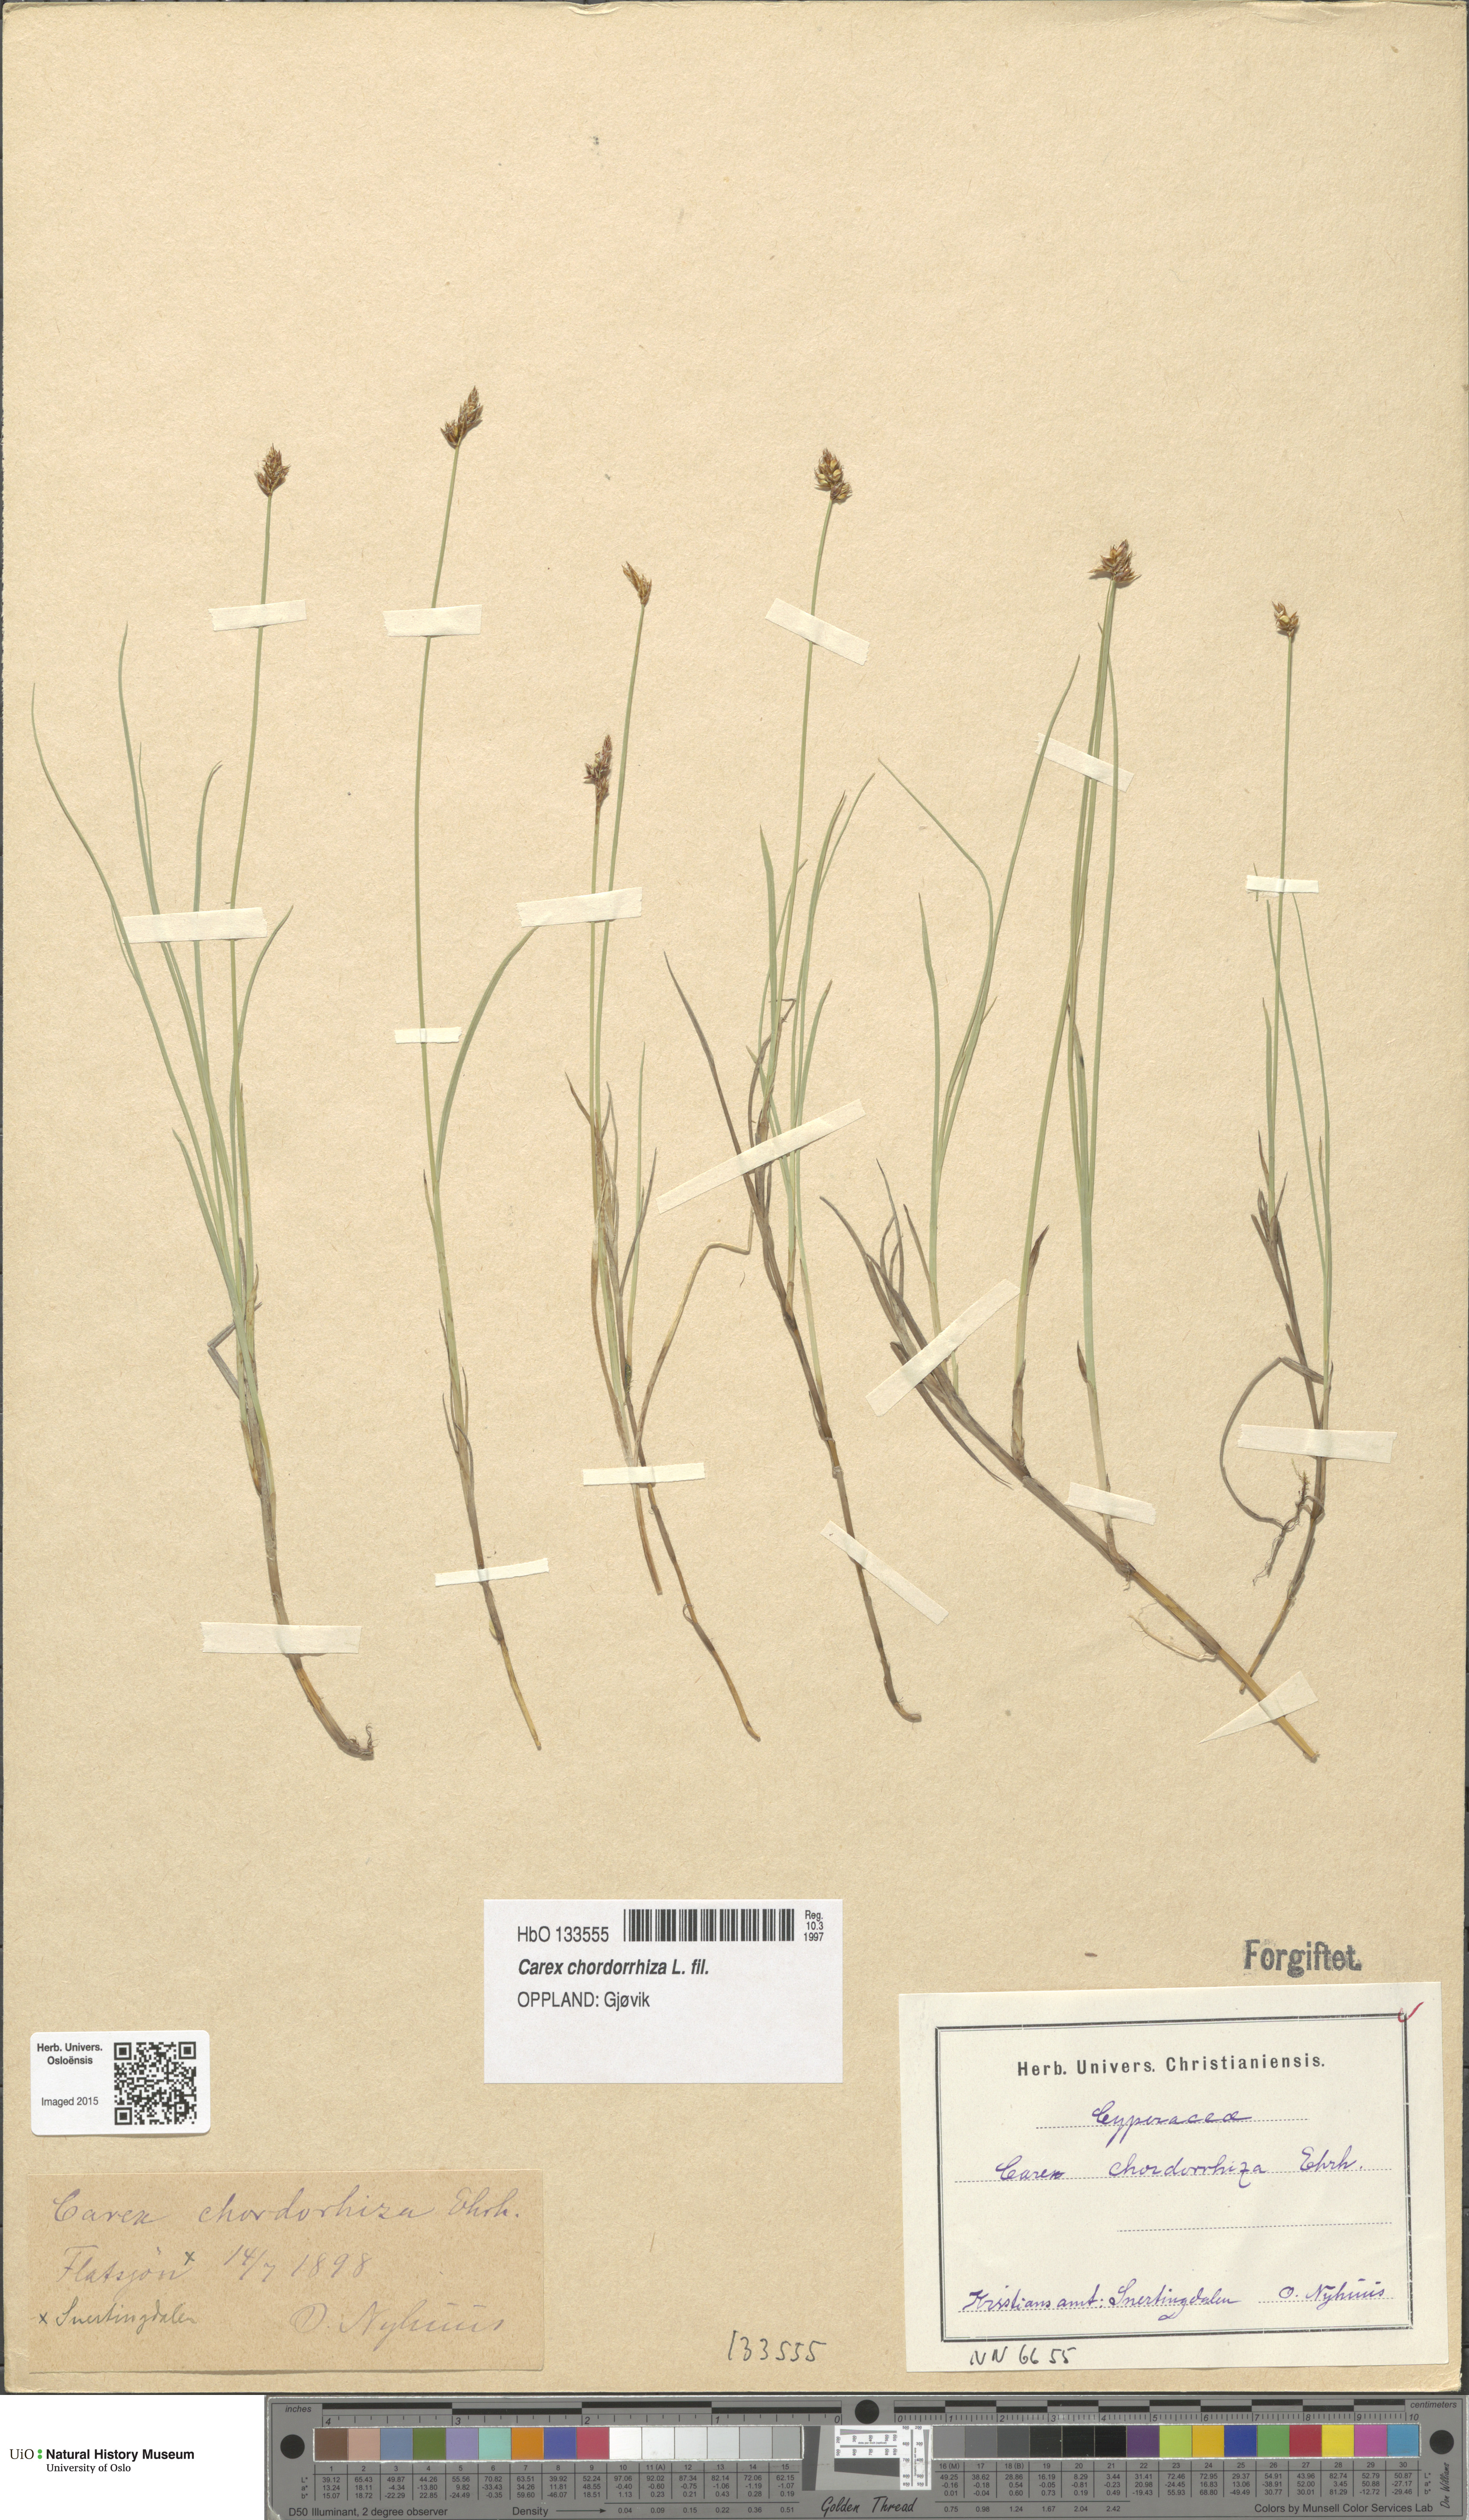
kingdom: Plantae
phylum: Tracheophyta
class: Liliopsida
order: Poales
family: Cyperaceae
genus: Carex
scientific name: Carex chordorrhiza
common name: String sedge
